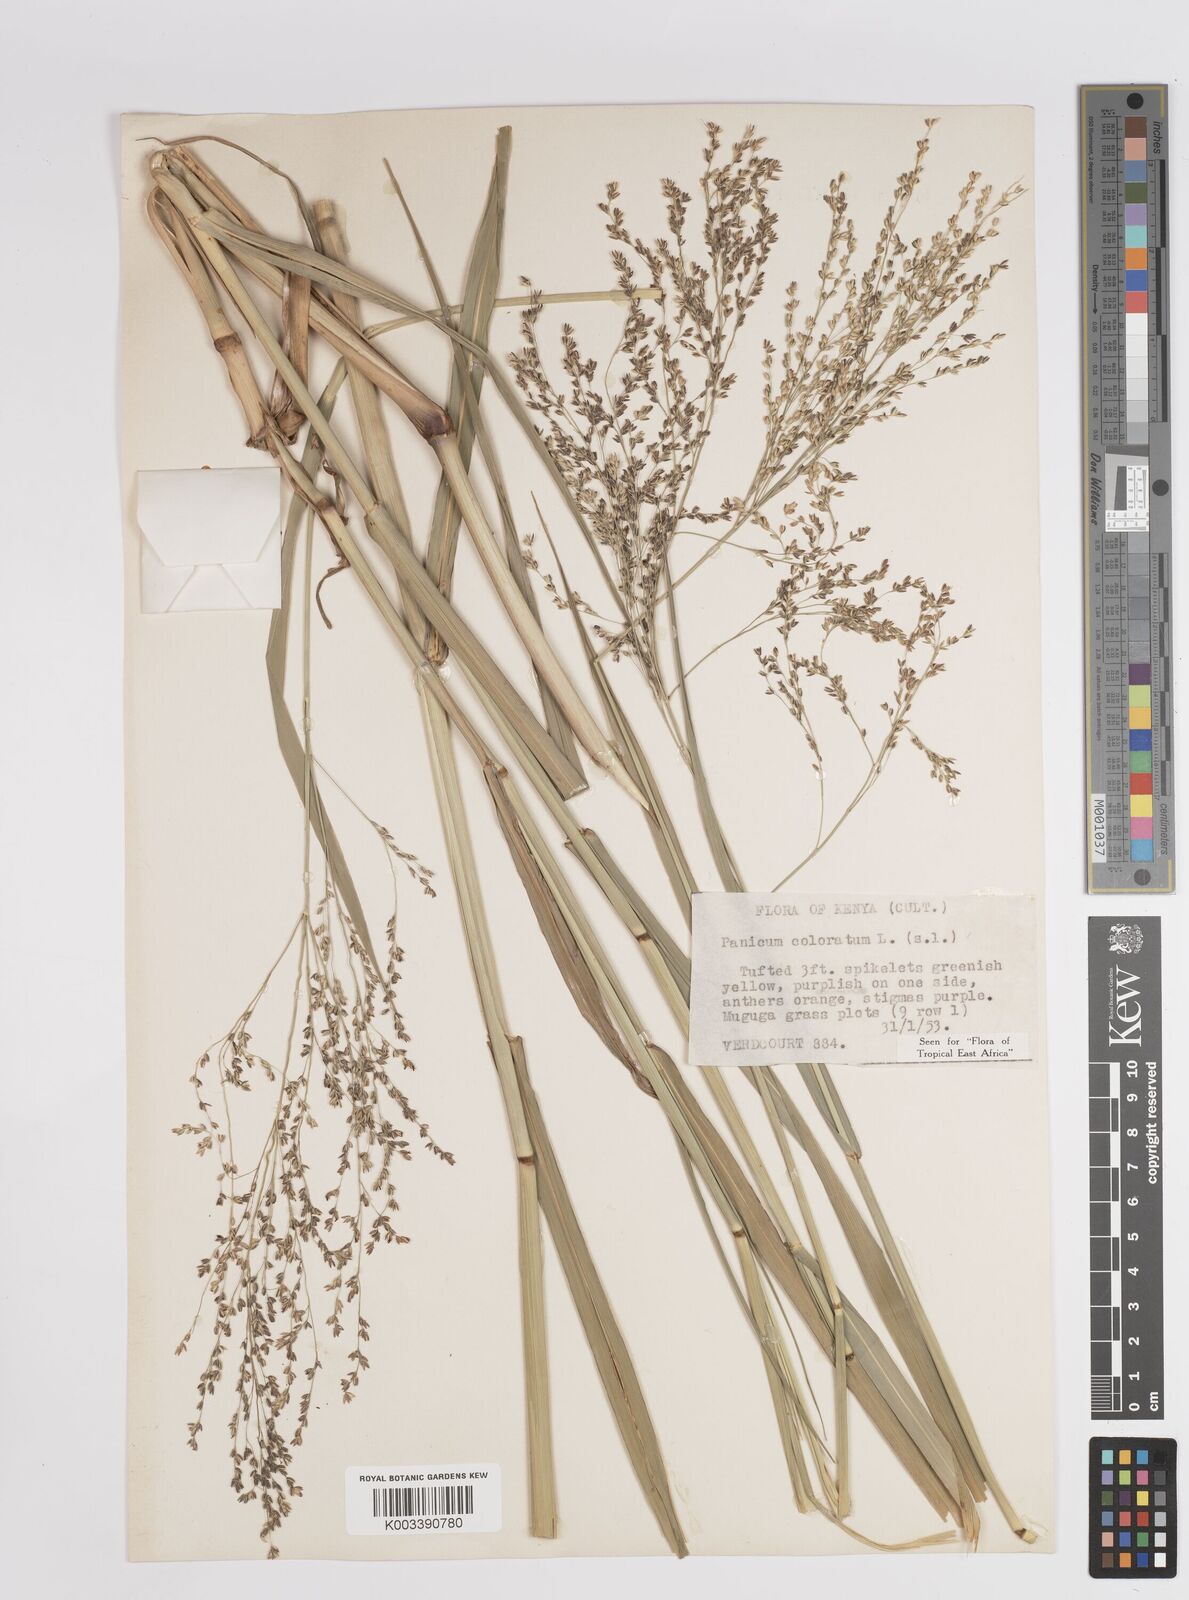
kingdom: Plantae
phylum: Tracheophyta
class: Liliopsida
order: Poales
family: Poaceae
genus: Panicum
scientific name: Panicum coloratum
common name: Kleingrass
